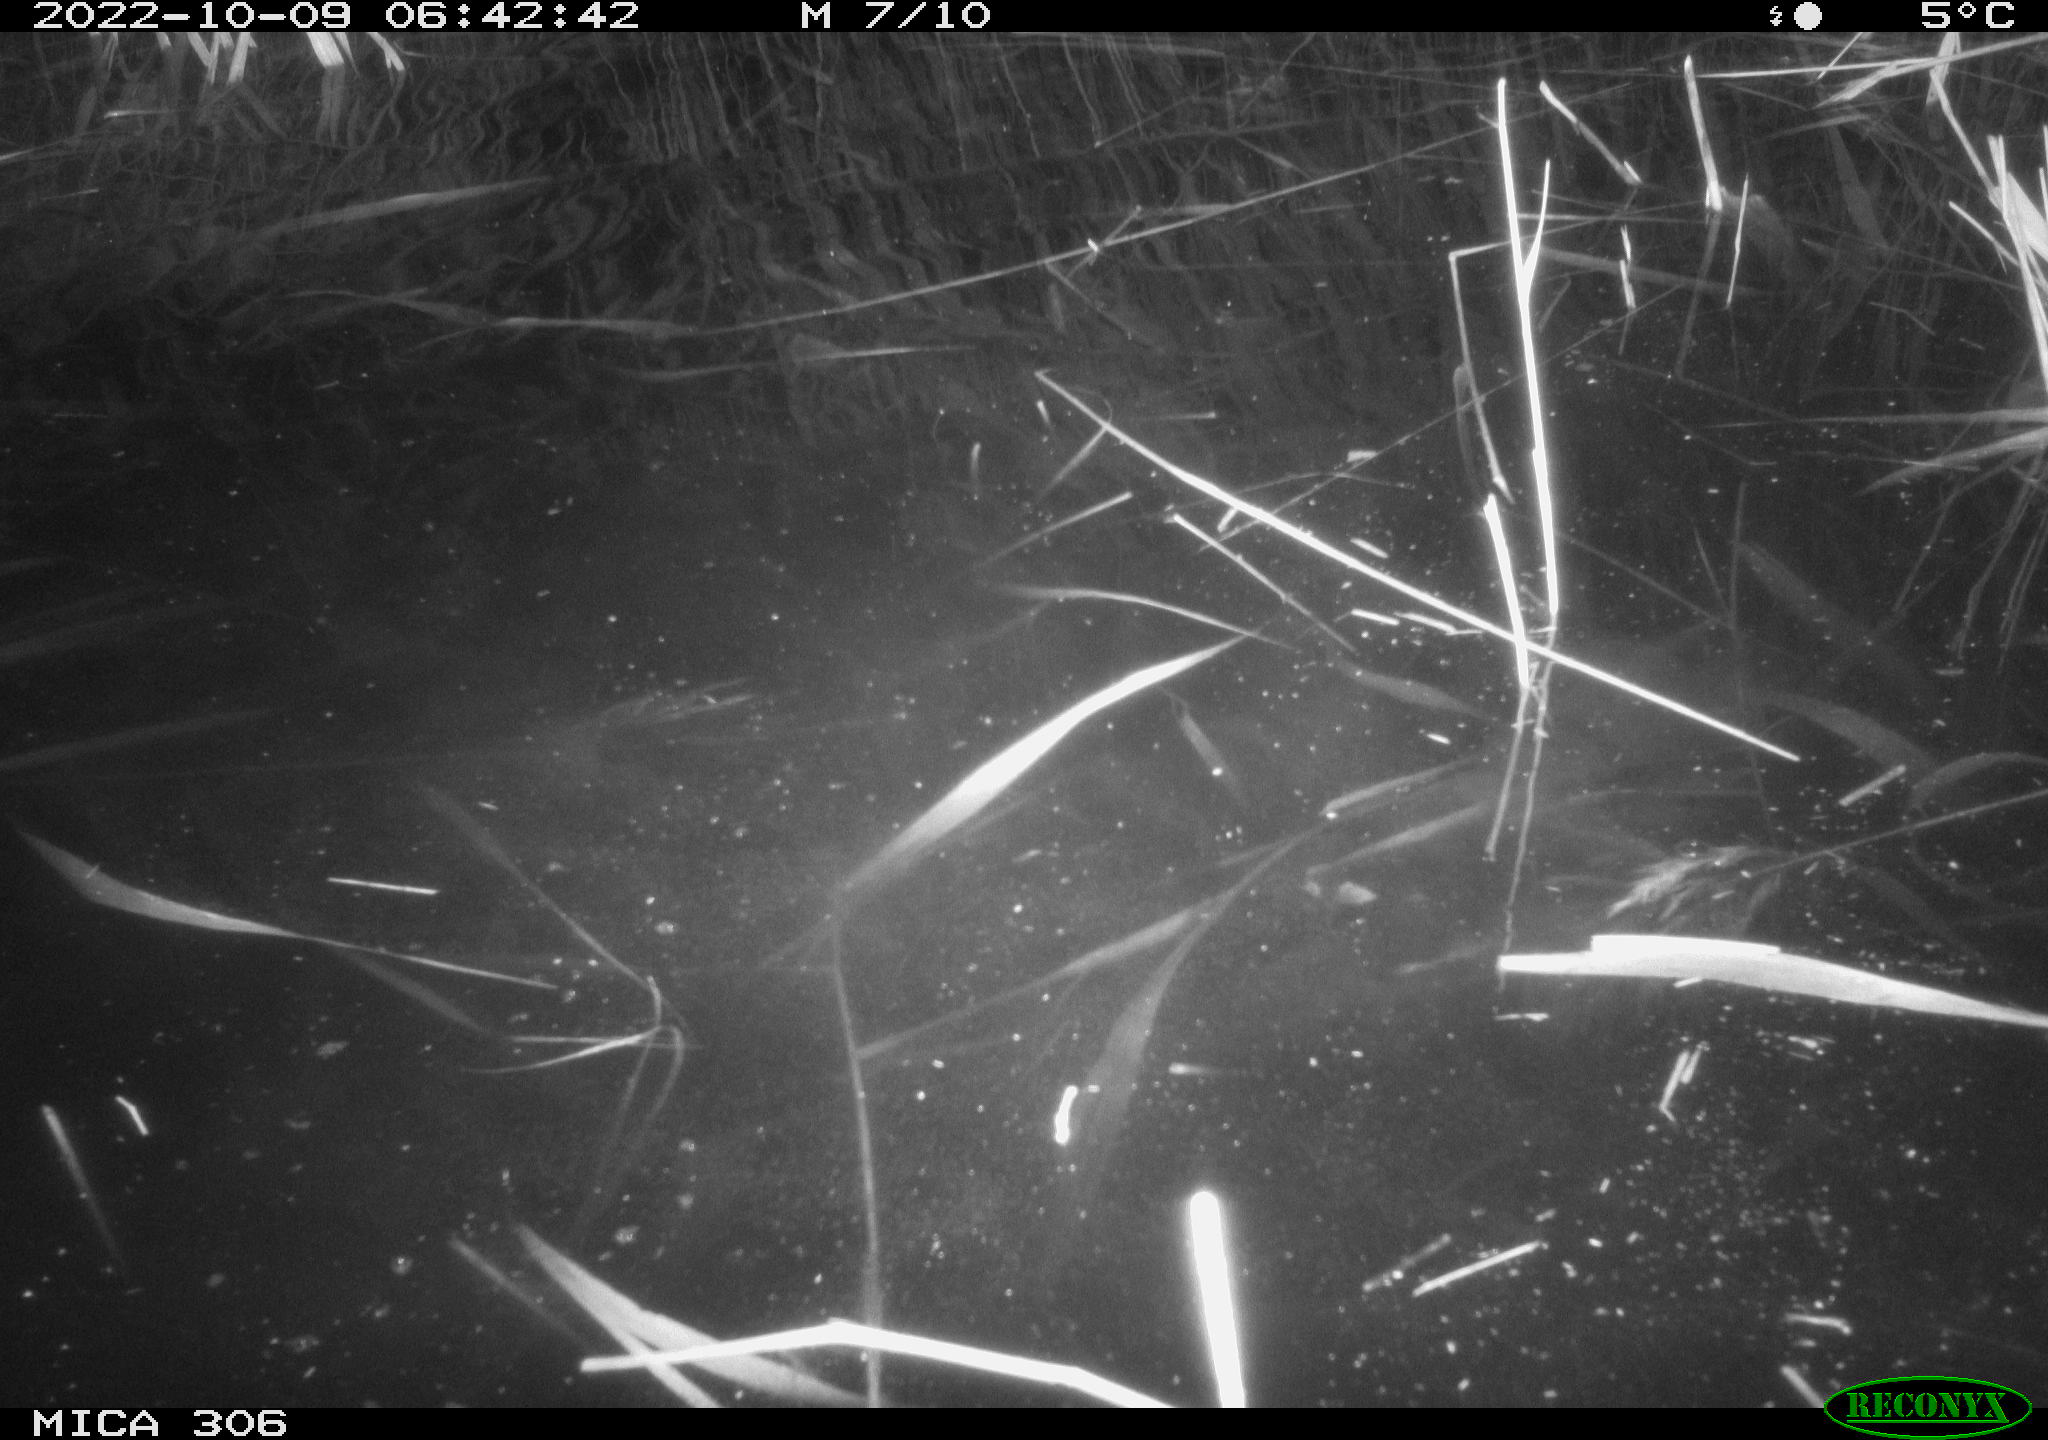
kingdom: Animalia
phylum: Chordata
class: Mammalia
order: Rodentia
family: Cricetidae
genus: Ondatra
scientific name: Ondatra zibethicus
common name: Muskrat
